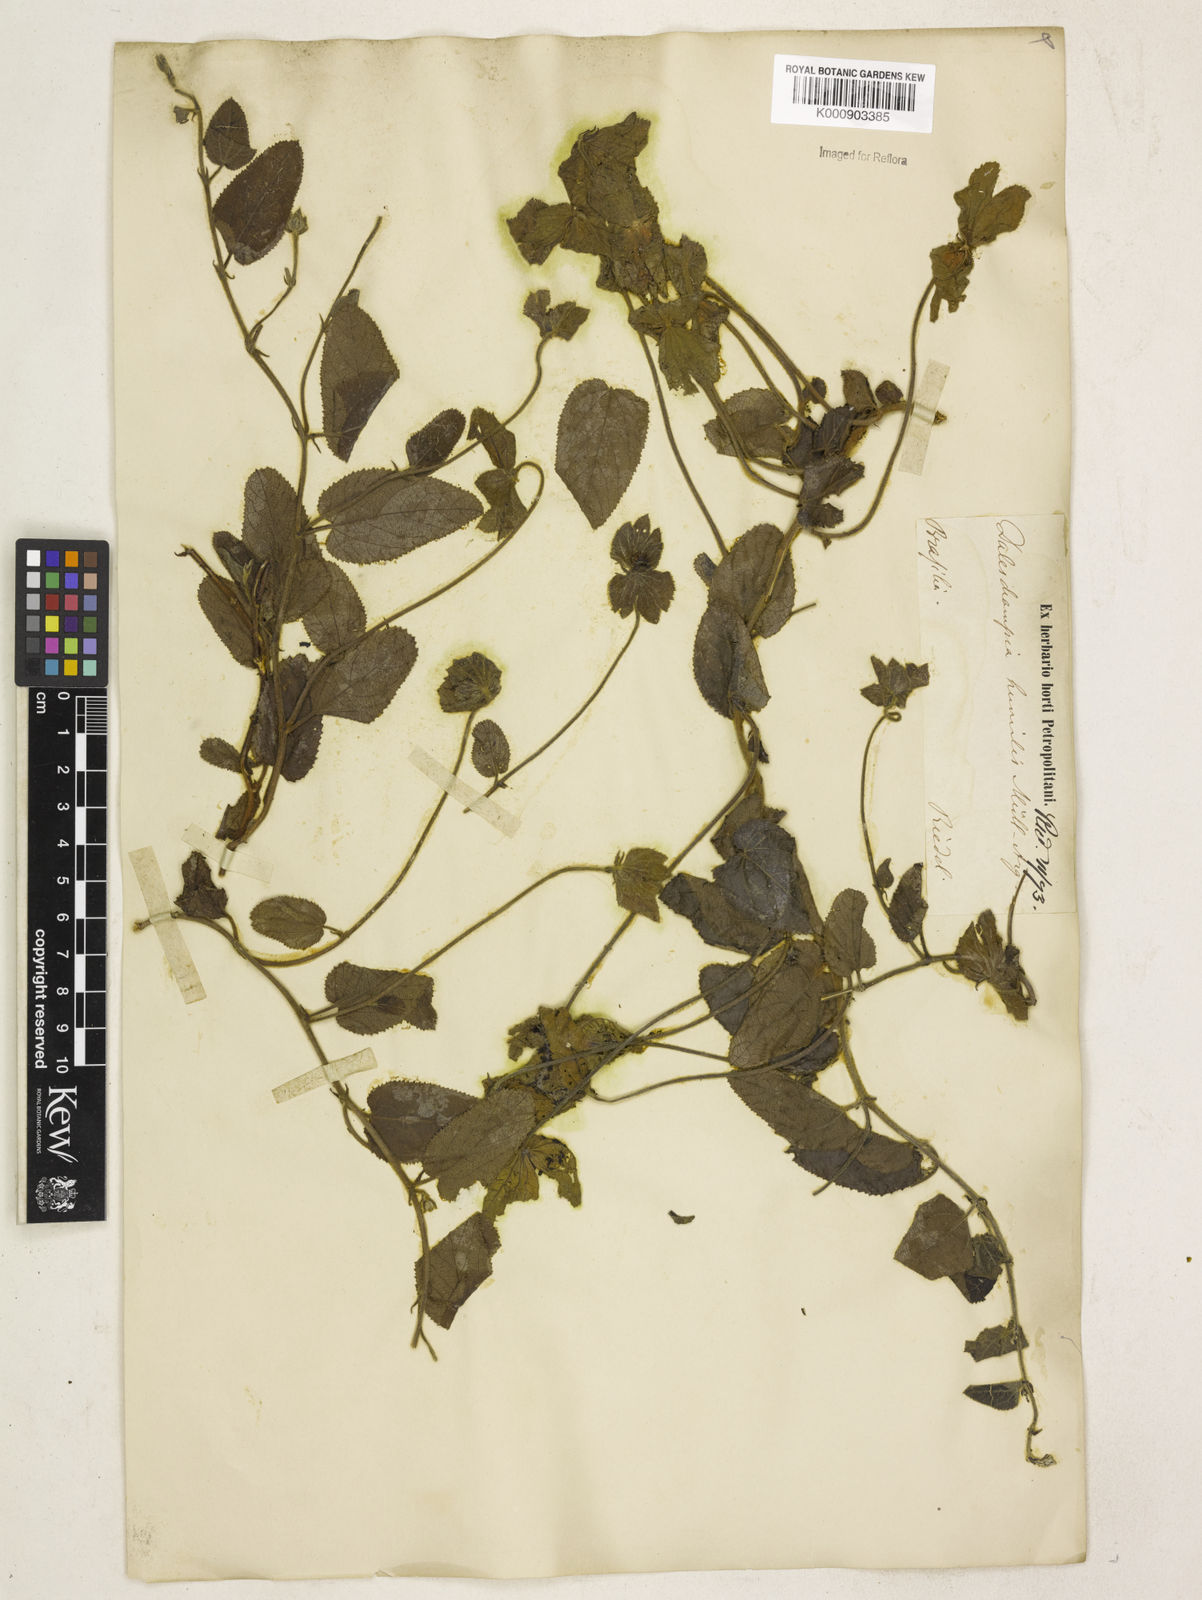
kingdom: Plantae
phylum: Tracheophyta
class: Magnoliopsida
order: Malpighiales
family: Euphorbiaceae
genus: Dalechampia
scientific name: Dalechampia
